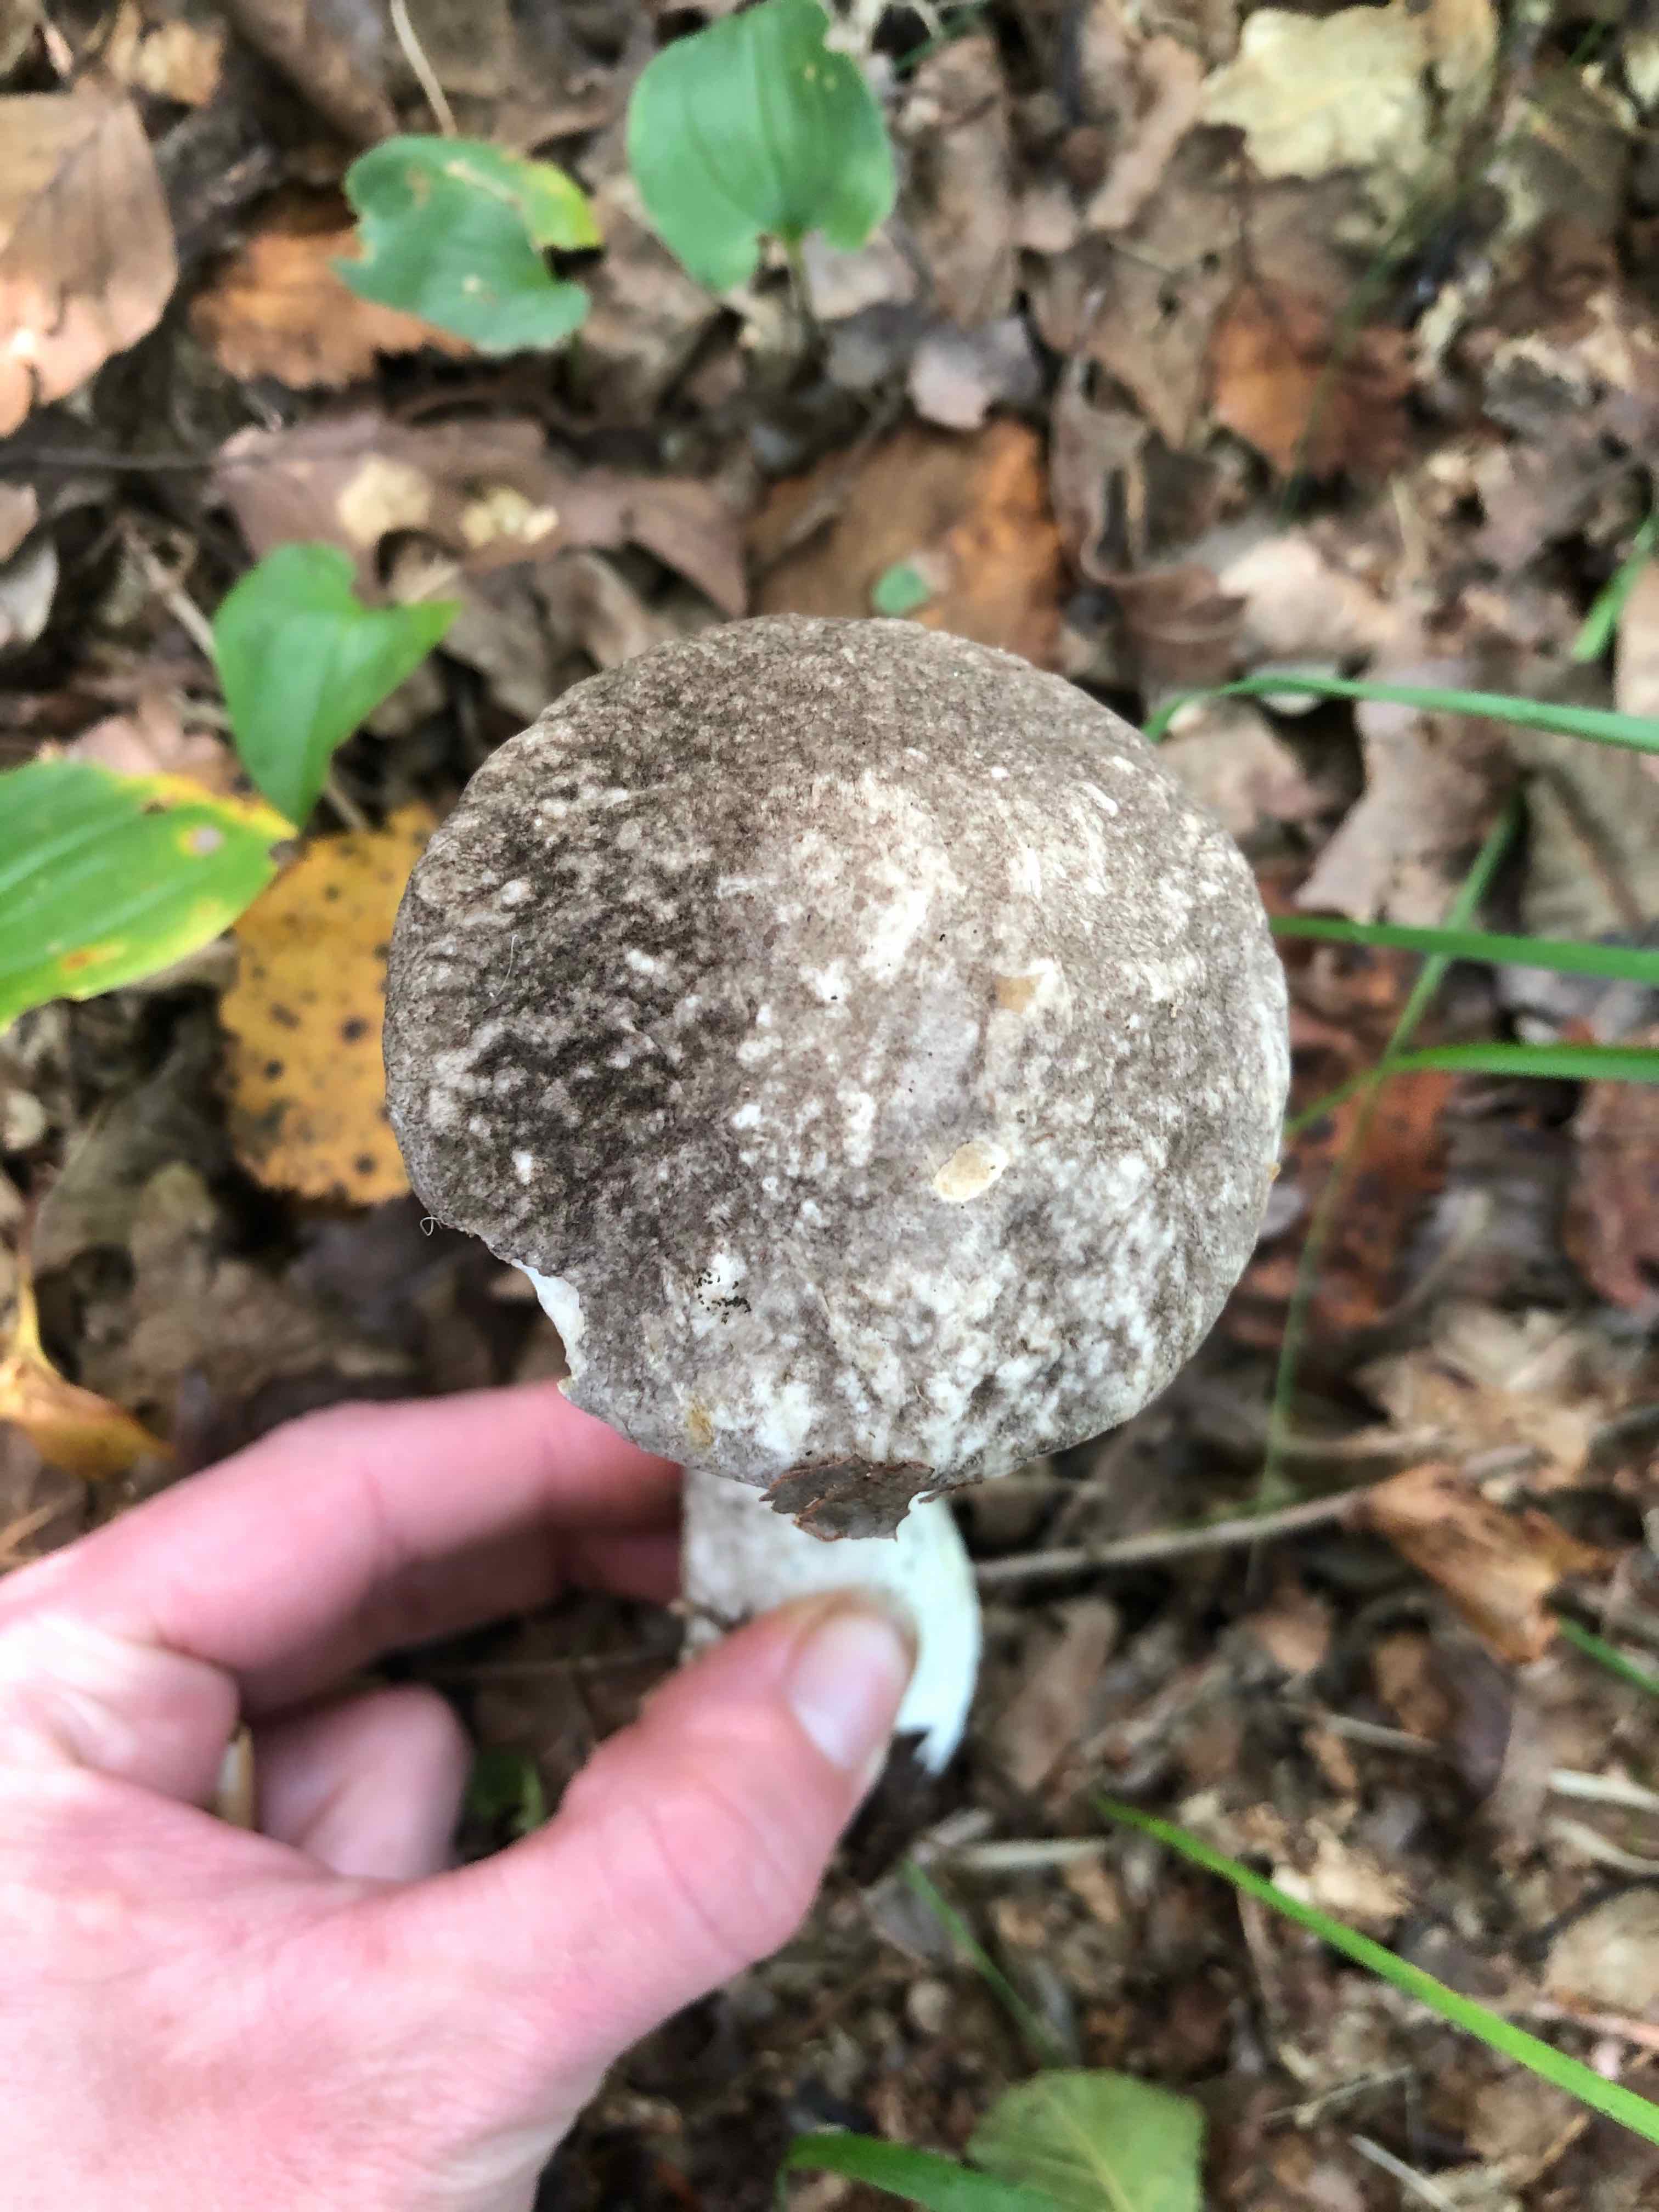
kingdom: Fungi
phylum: Basidiomycota
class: Agaricomycetes
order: Boletales
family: Boletaceae
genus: Leccinum
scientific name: Leccinum variicolor
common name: flammet skælrørhat
